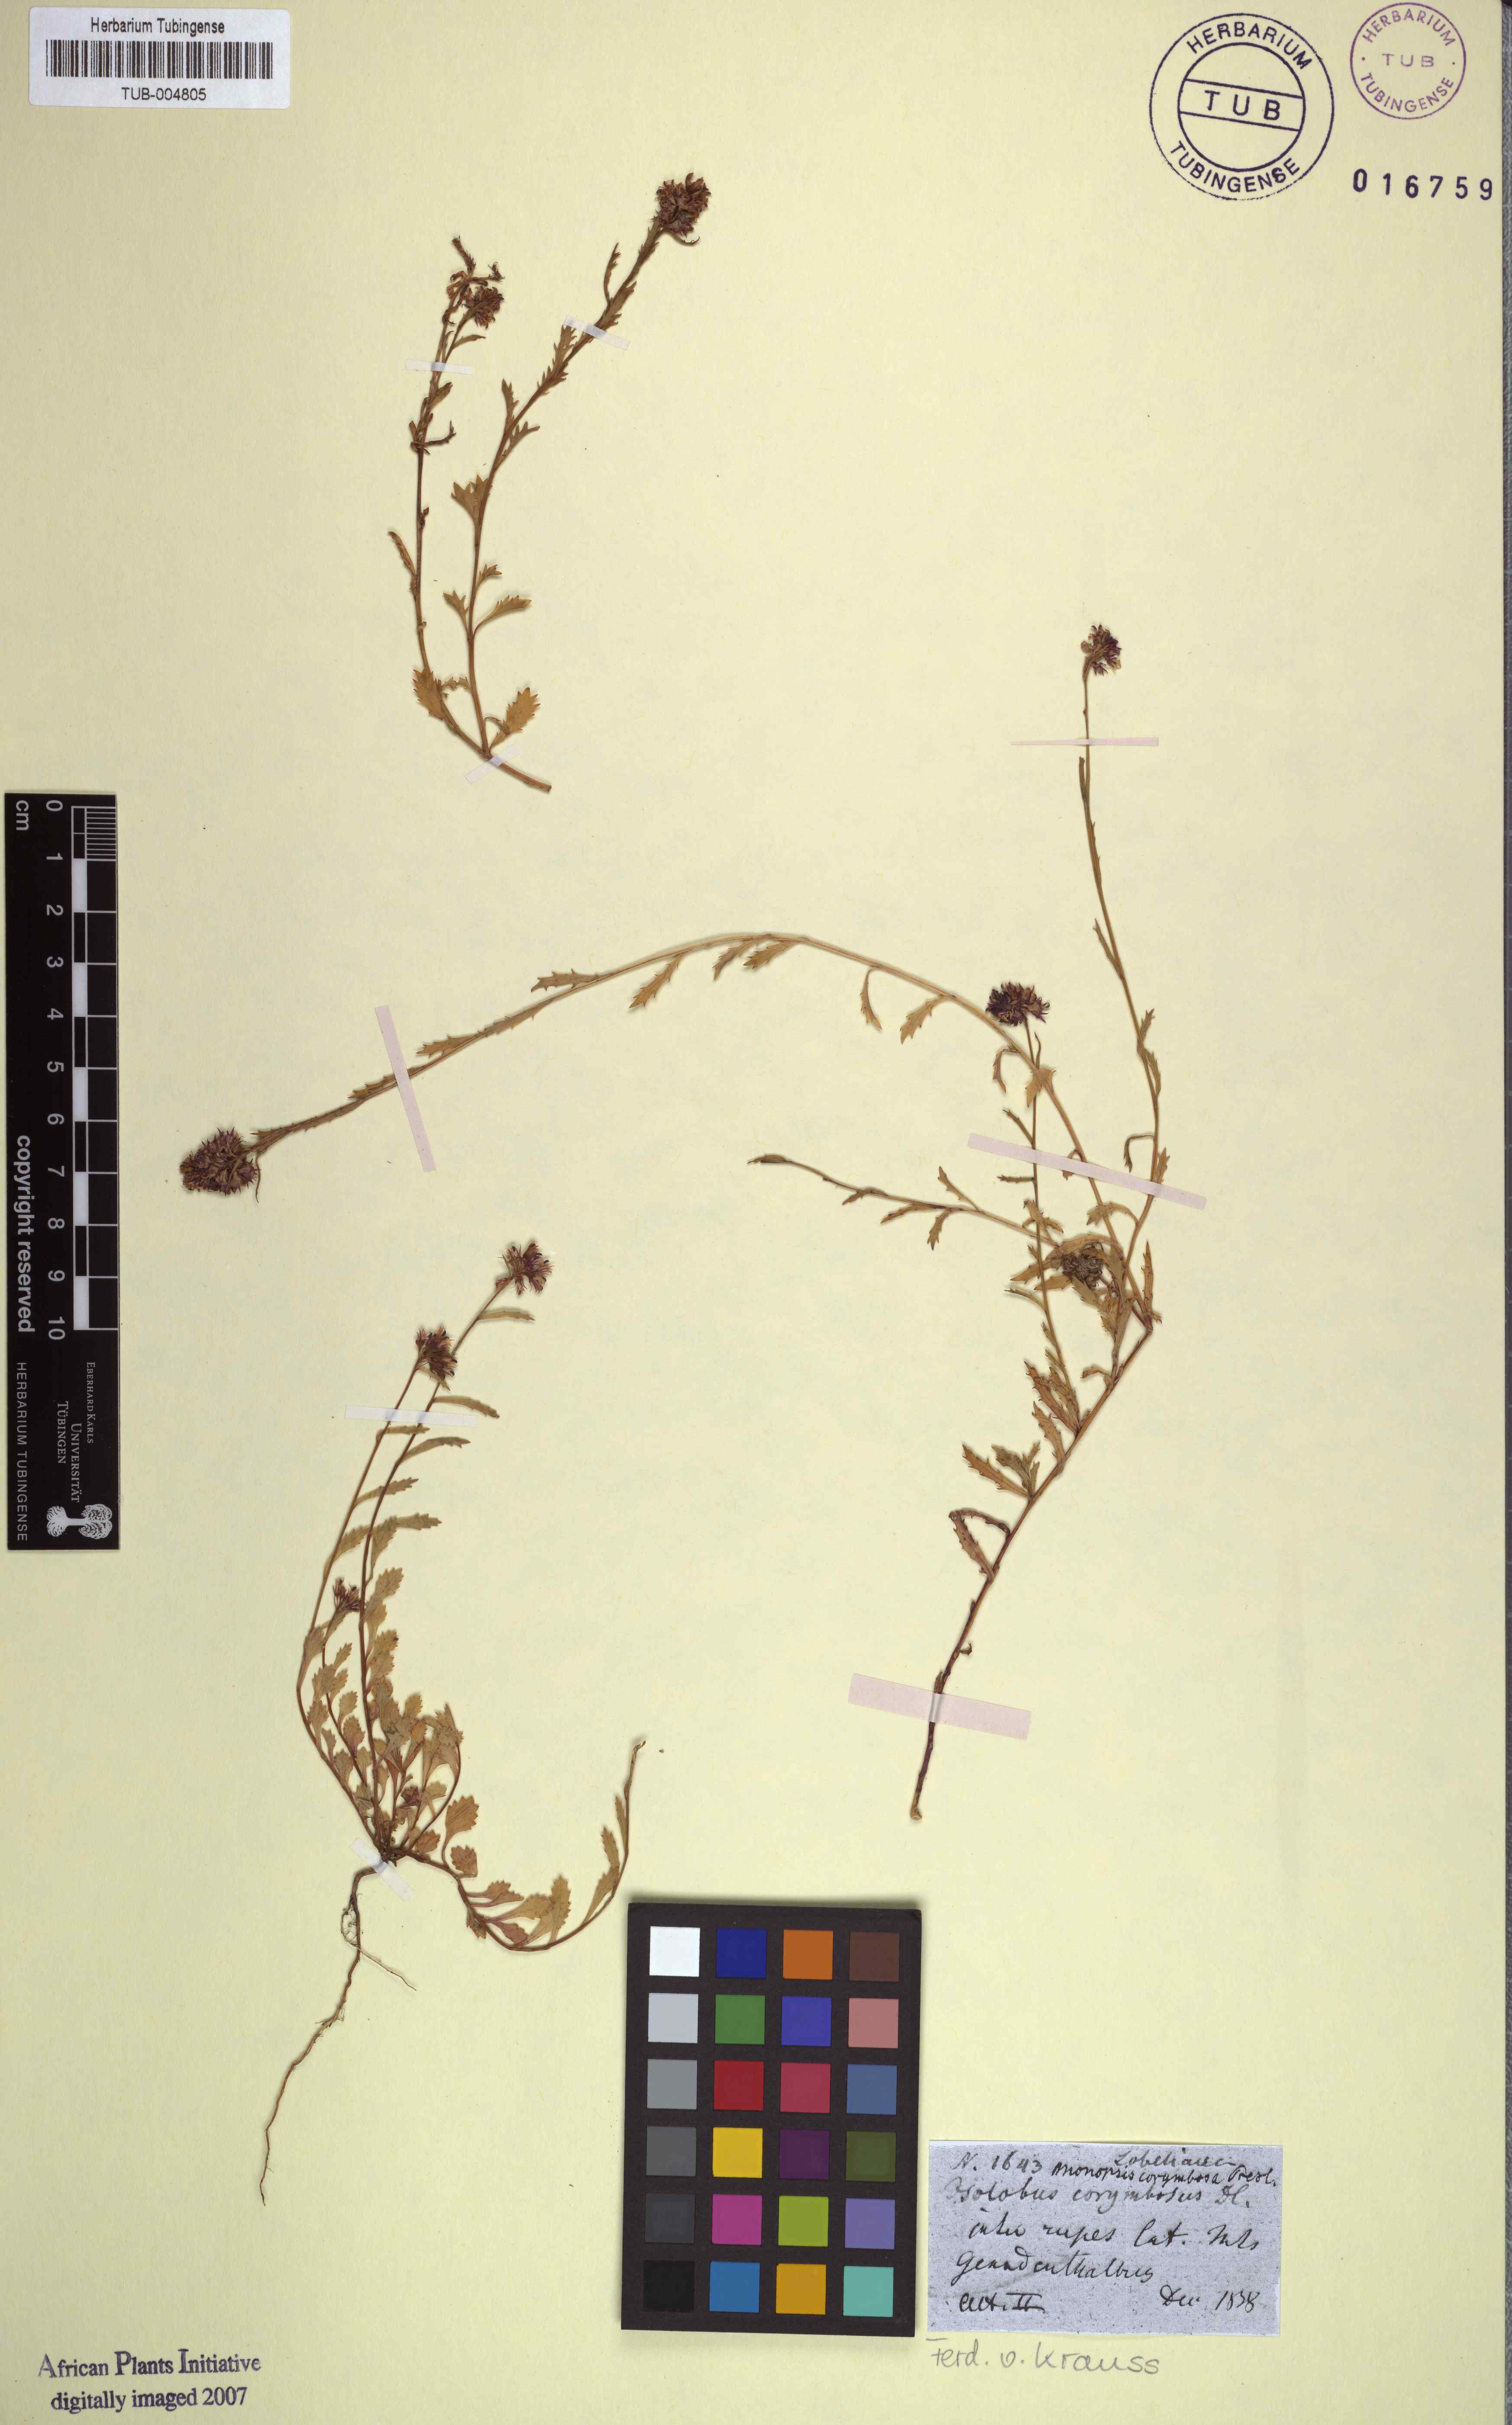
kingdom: Plantae
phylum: Tracheophyta
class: Magnoliopsida
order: Asterales
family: Campanulaceae
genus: Lobelia
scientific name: Lobelia jasionoides
